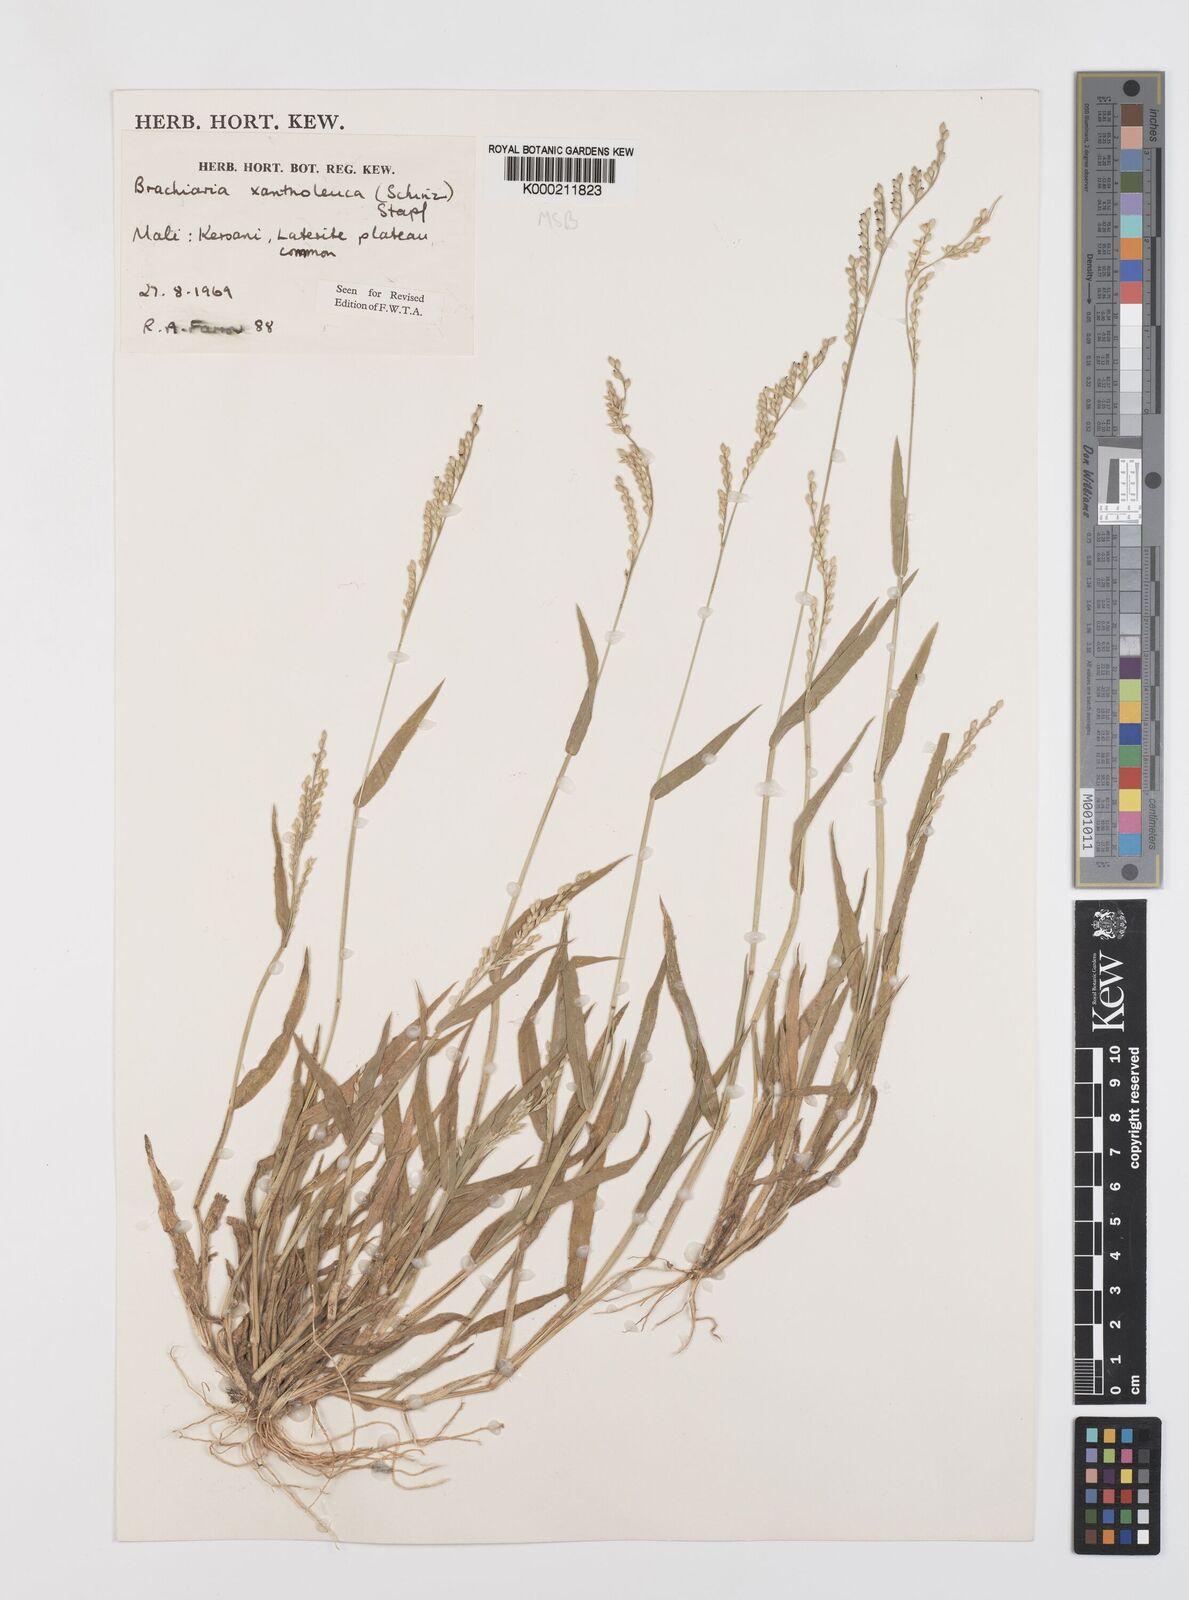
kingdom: Plantae
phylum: Tracheophyta
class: Liliopsida
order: Poales
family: Poaceae
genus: Urochloa
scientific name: Urochloa xantholeuca
